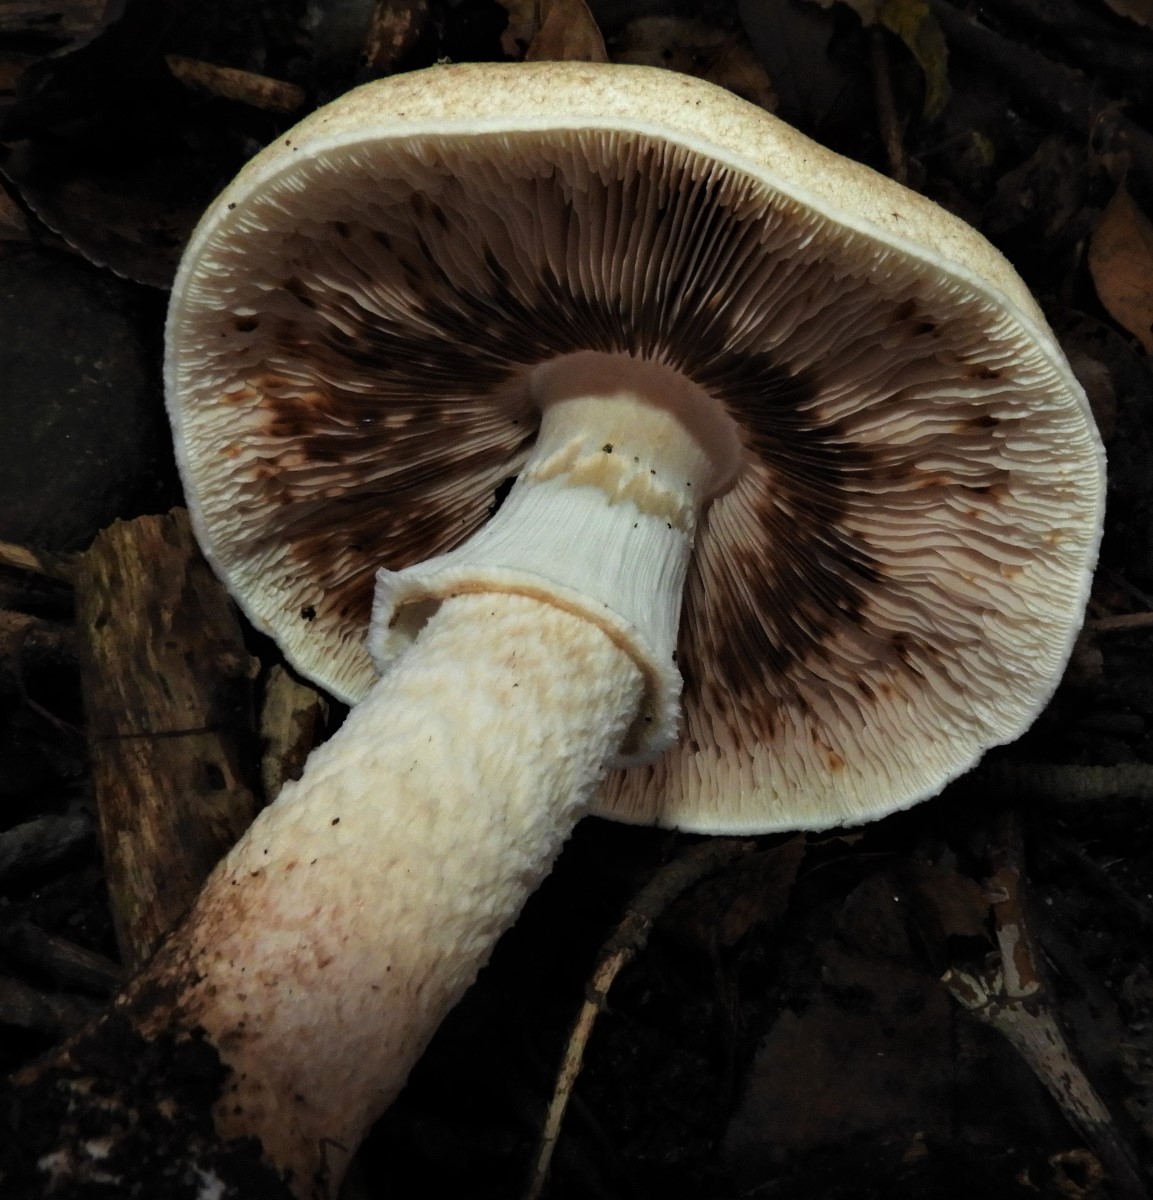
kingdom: Fungi
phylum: Basidiomycota
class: Agaricomycetes
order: Agaricales
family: Agaricaceae
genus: Agaricus
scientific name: Agaricus augustus
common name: prægtig champignon
